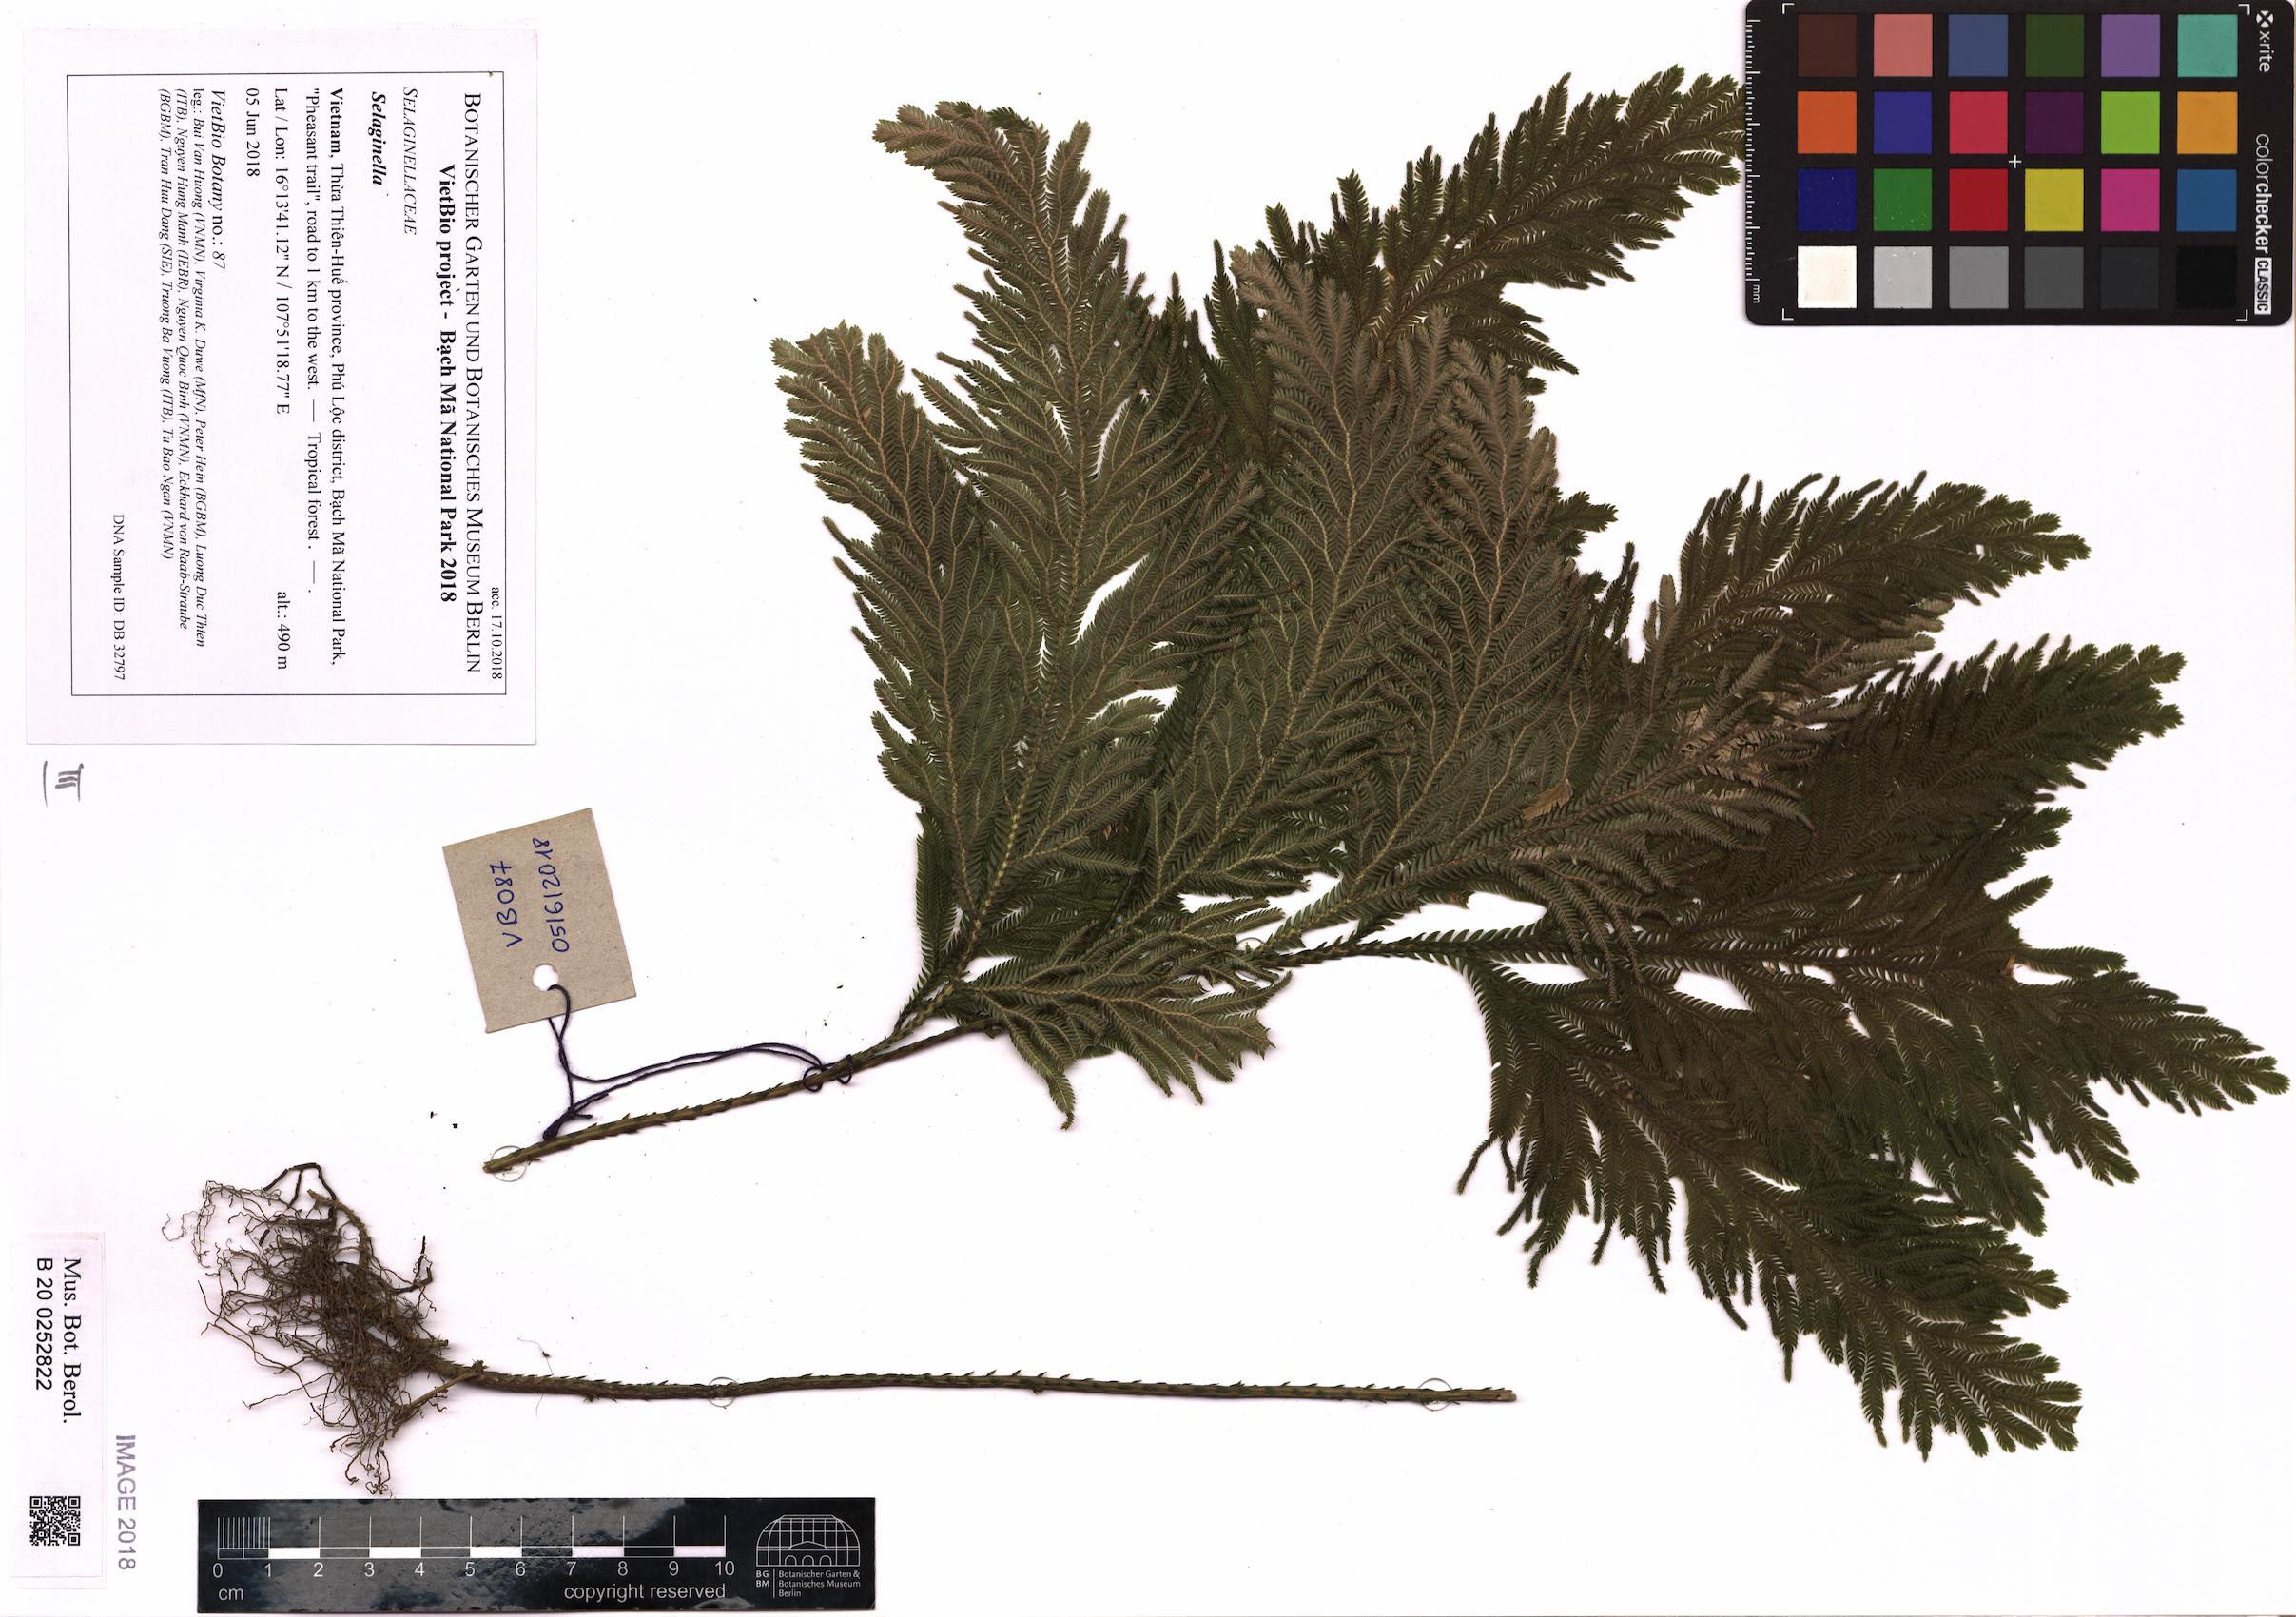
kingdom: Plantae
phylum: Tracheophyta
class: Lycopodiopsida
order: Selaginellales
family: Selaginellaceae
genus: Selaginella
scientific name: Selaginella
